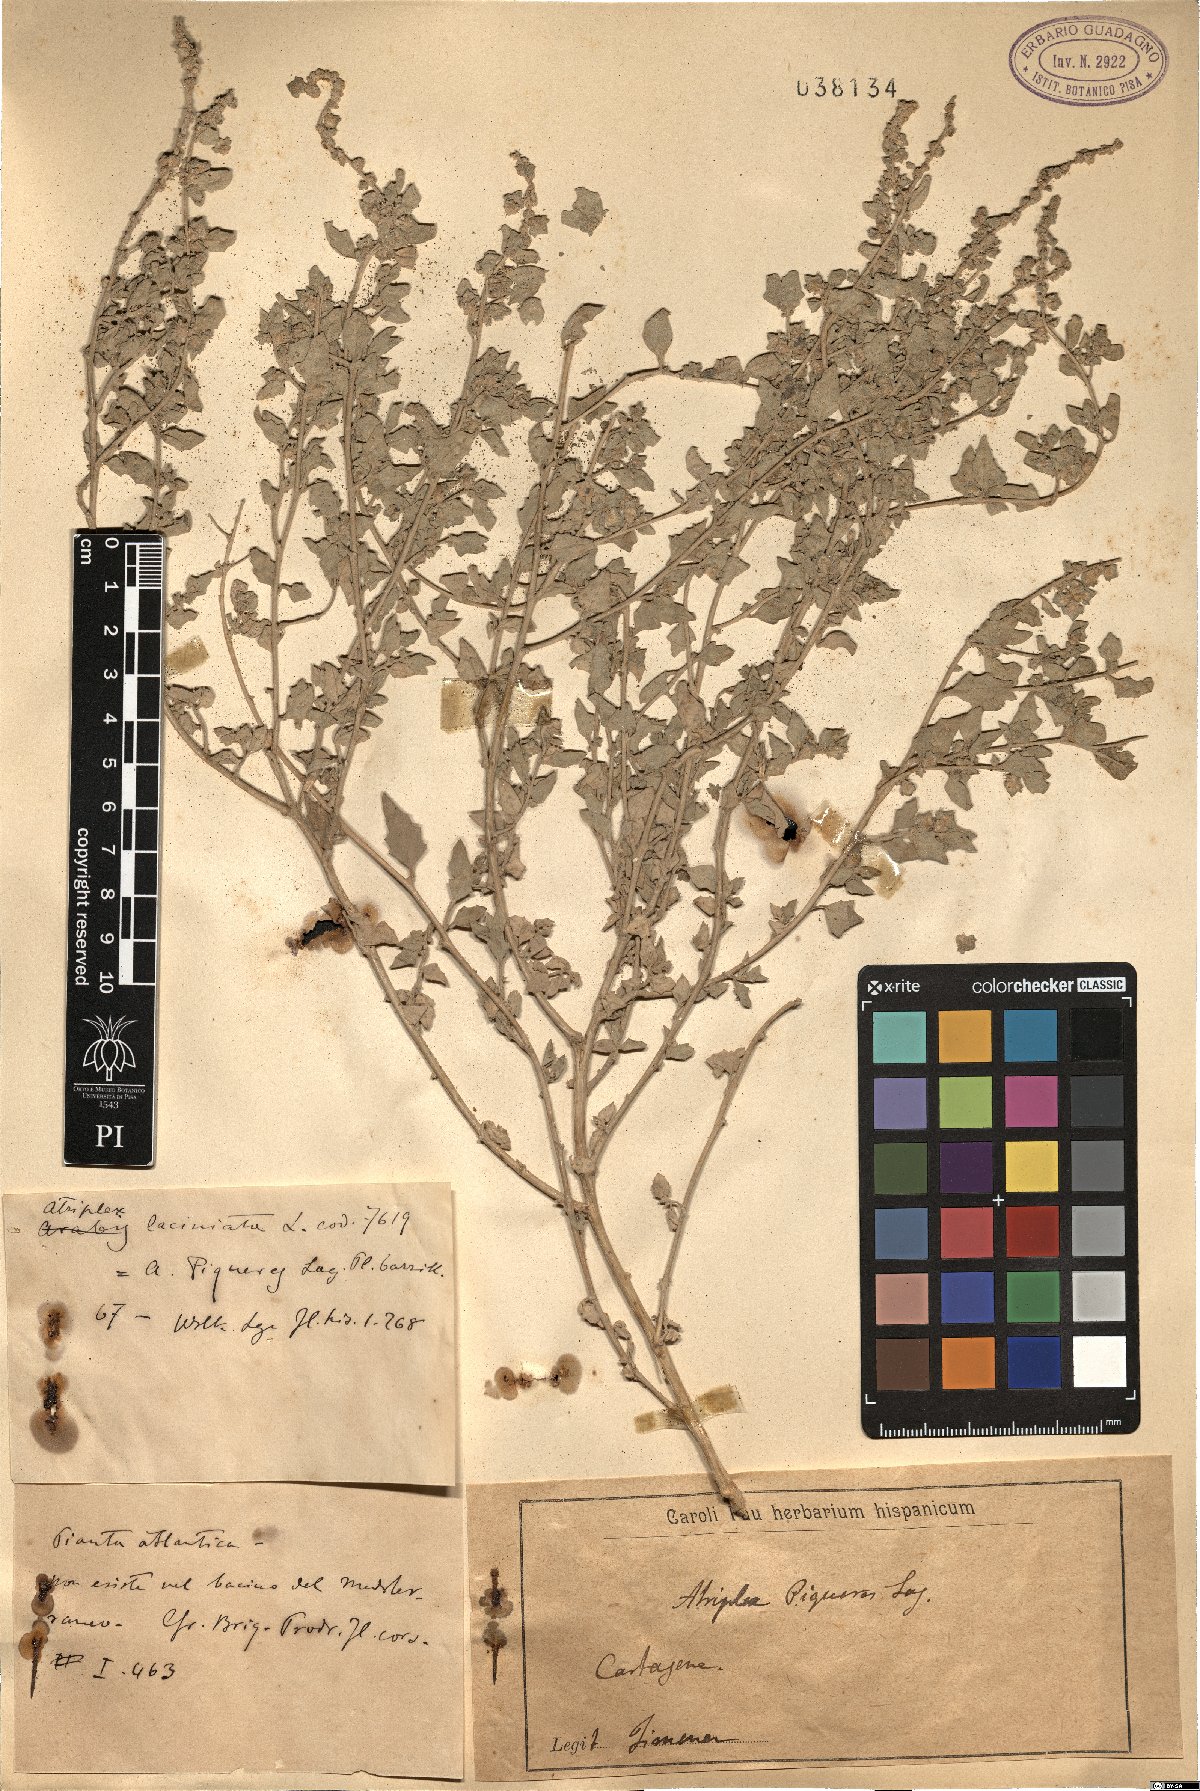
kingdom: Plantae
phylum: Tracheophyta
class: Magnoliopsida
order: Caryophyllales
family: Amaranthaceae
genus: Atriplex
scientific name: Atriplex tornabenei
